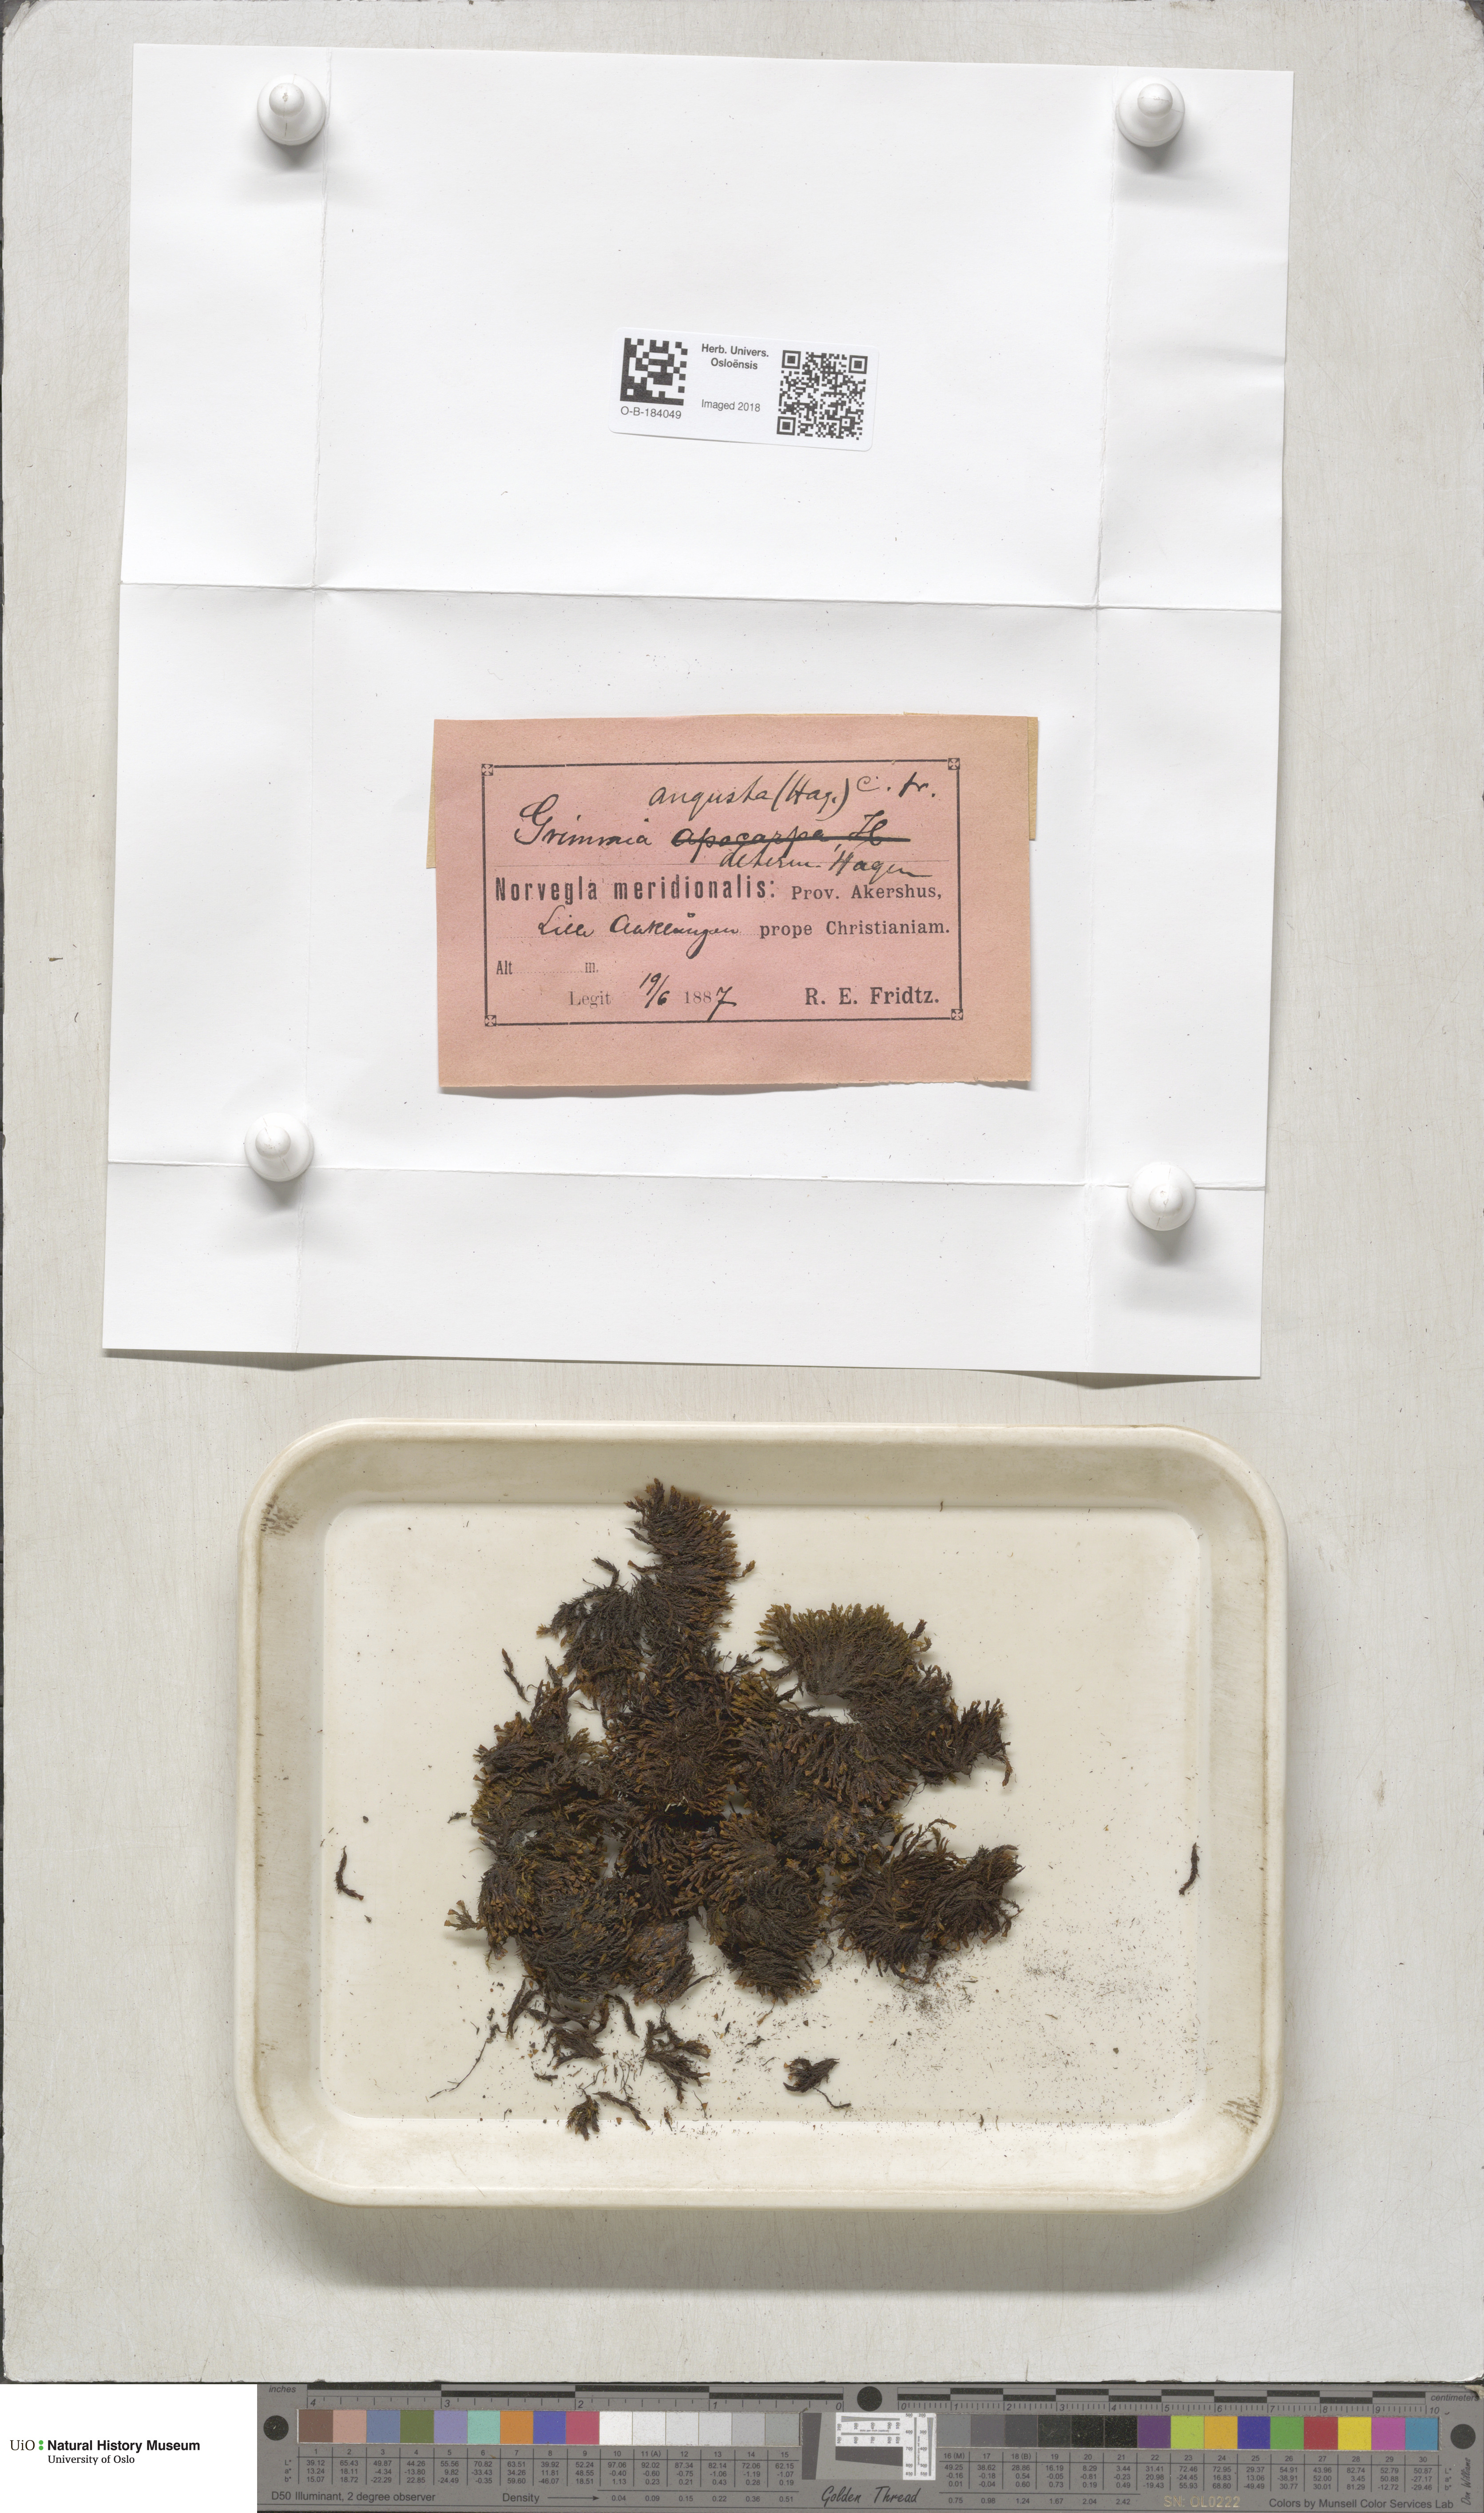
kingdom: Plantae
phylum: Bryophyta
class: Bryopsida
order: Grimmiales
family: Grimmiaceae
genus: Schistidium
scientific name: Schistidium agassizii
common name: Agassiz's bloom moss
